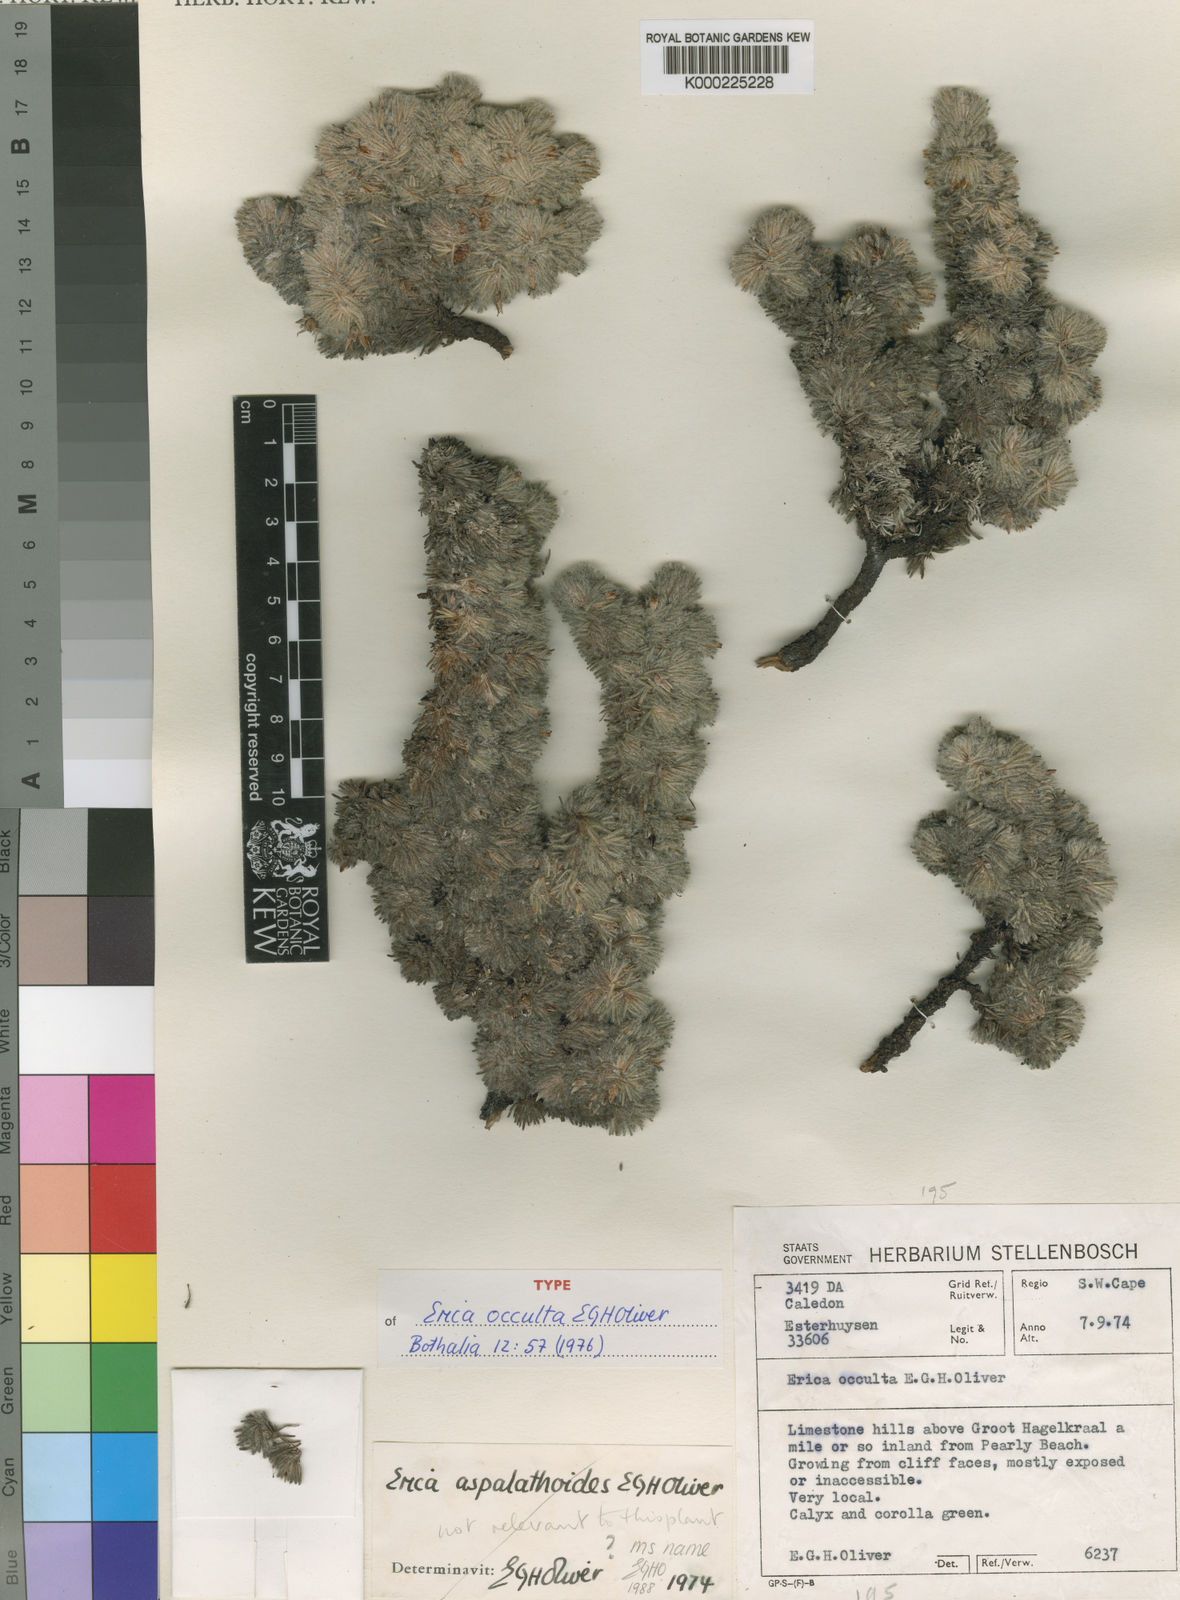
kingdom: Plantae
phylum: Tracheophyta
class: Magnoliopsida
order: Ericales
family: Ericaceae
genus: Erica
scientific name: Erica occulta
